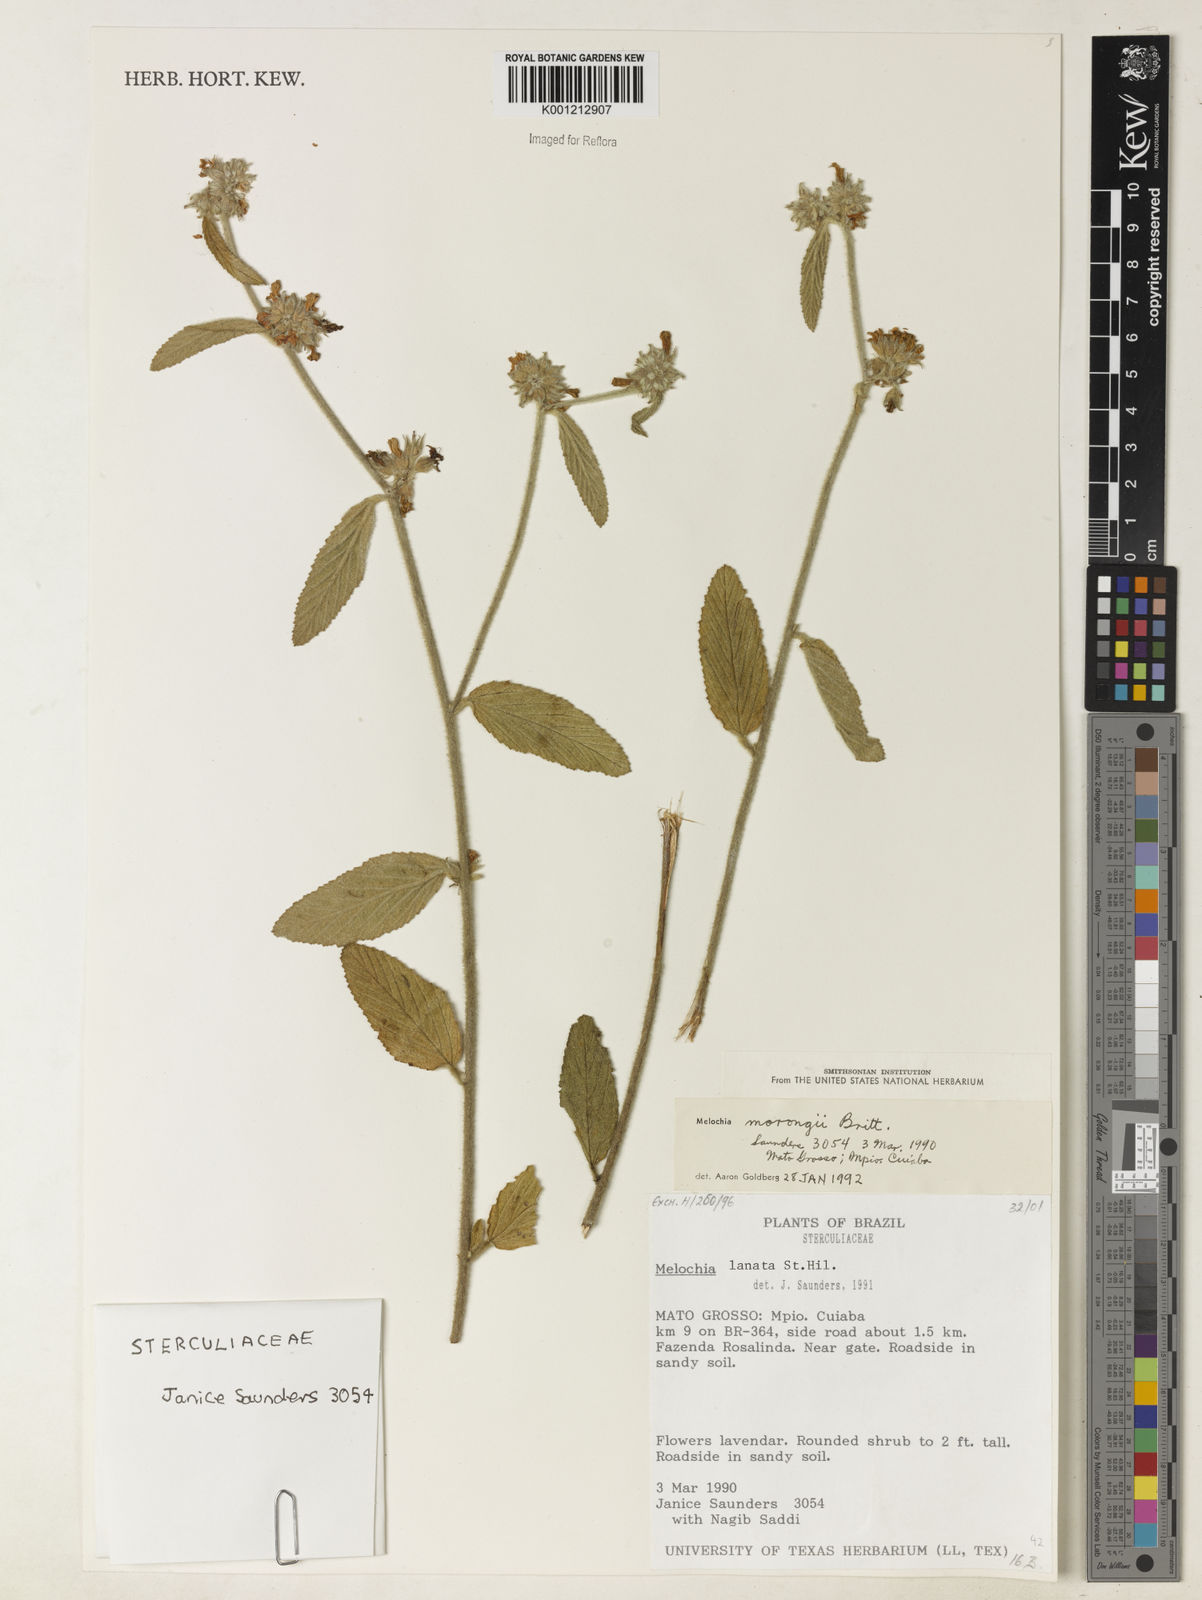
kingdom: Plantae
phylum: Tracheophyta
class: Magnoliopsida
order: Malvales
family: Malvaceae
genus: Melochia
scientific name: Melochia morongii
